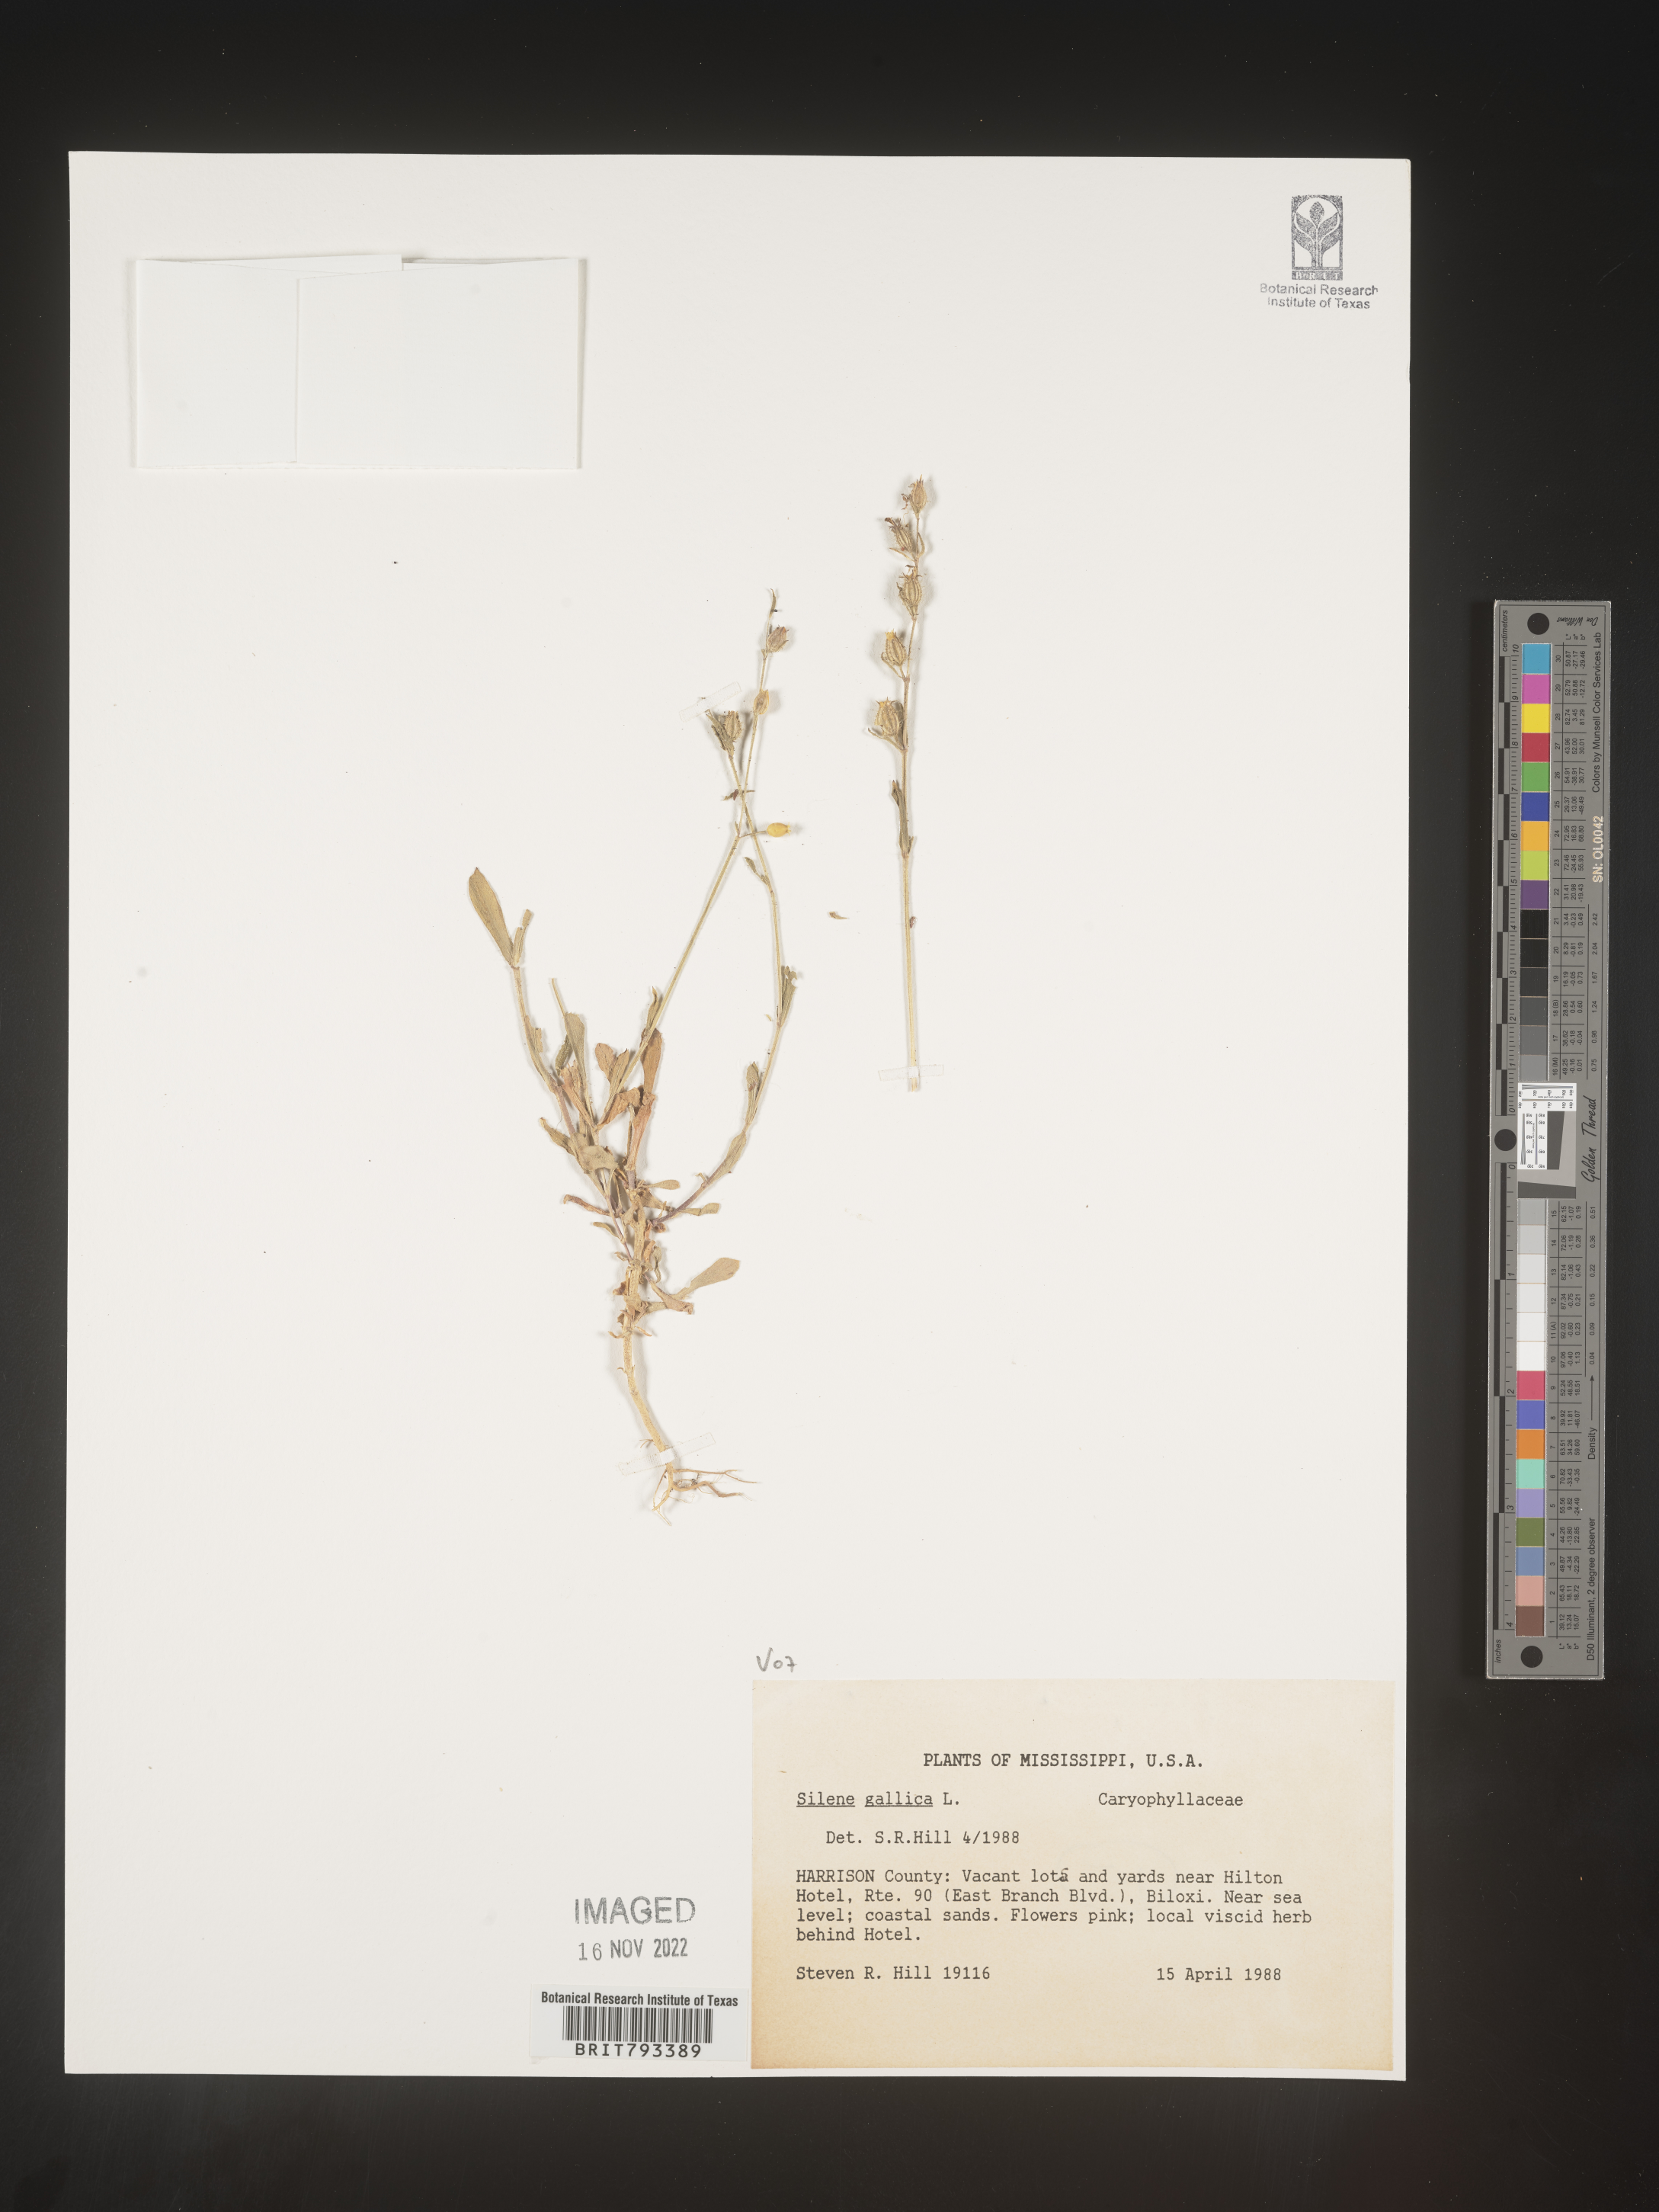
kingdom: Plantae
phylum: Tracheophyta
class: Magnoliopsida
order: Caryophyllales
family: Caryophyllaceae
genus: Silene
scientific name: Silene gallica
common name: Small-flowered catchfly
